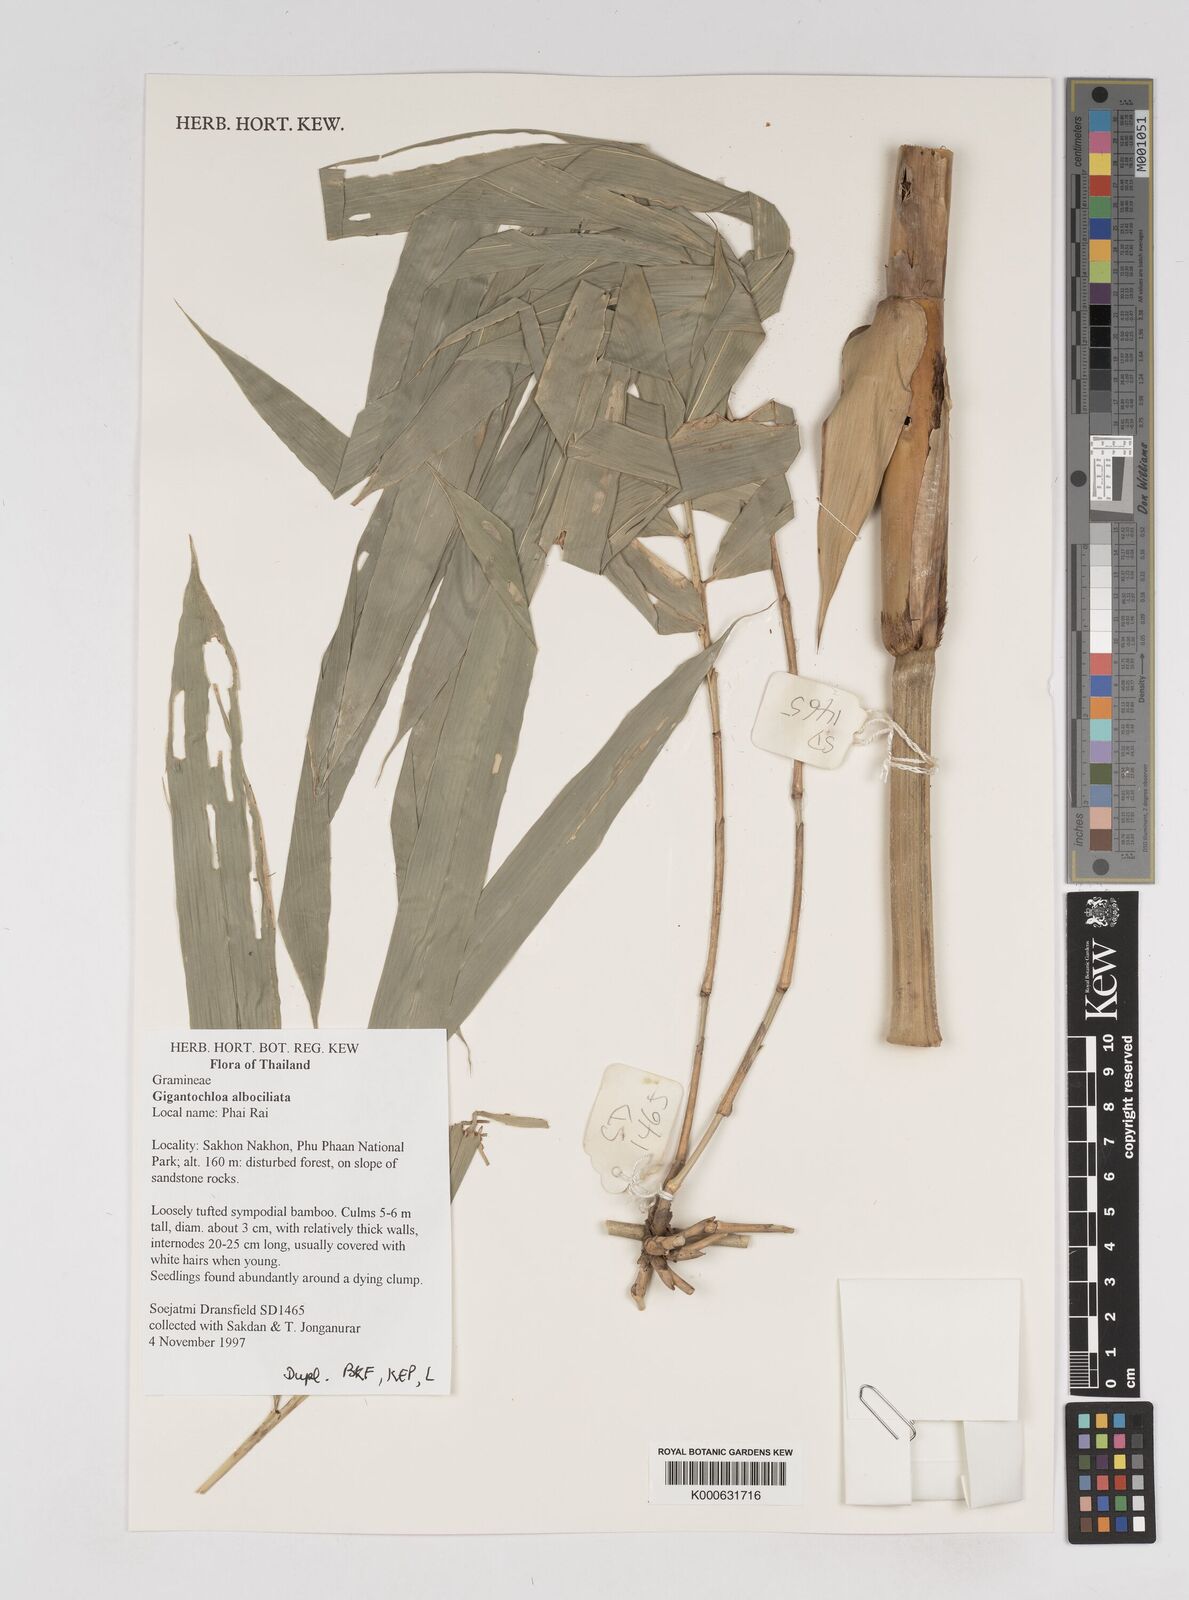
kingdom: Plantae
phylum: Tracheophyta
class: Liliopsida
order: Poales
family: Poaceae
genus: Gigantochloa
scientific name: Gigantochloa albociliata
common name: White-fringe gigantochloa
